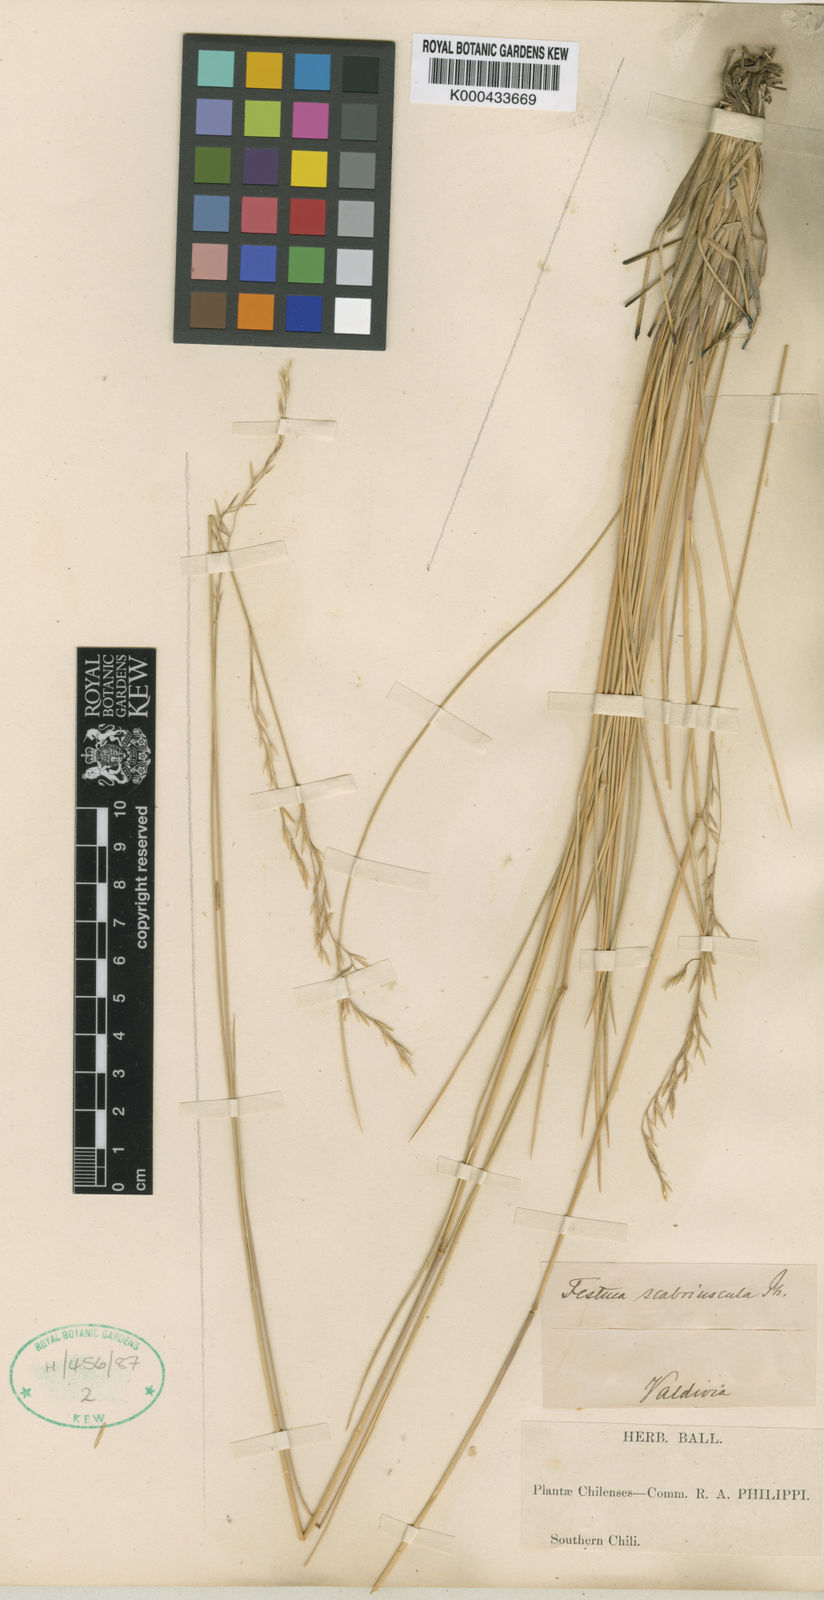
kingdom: Plantae
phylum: Tracheophyta
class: Liliopsida
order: Poales
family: Poaceae
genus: Festuca
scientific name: Festuca acanthophylla
